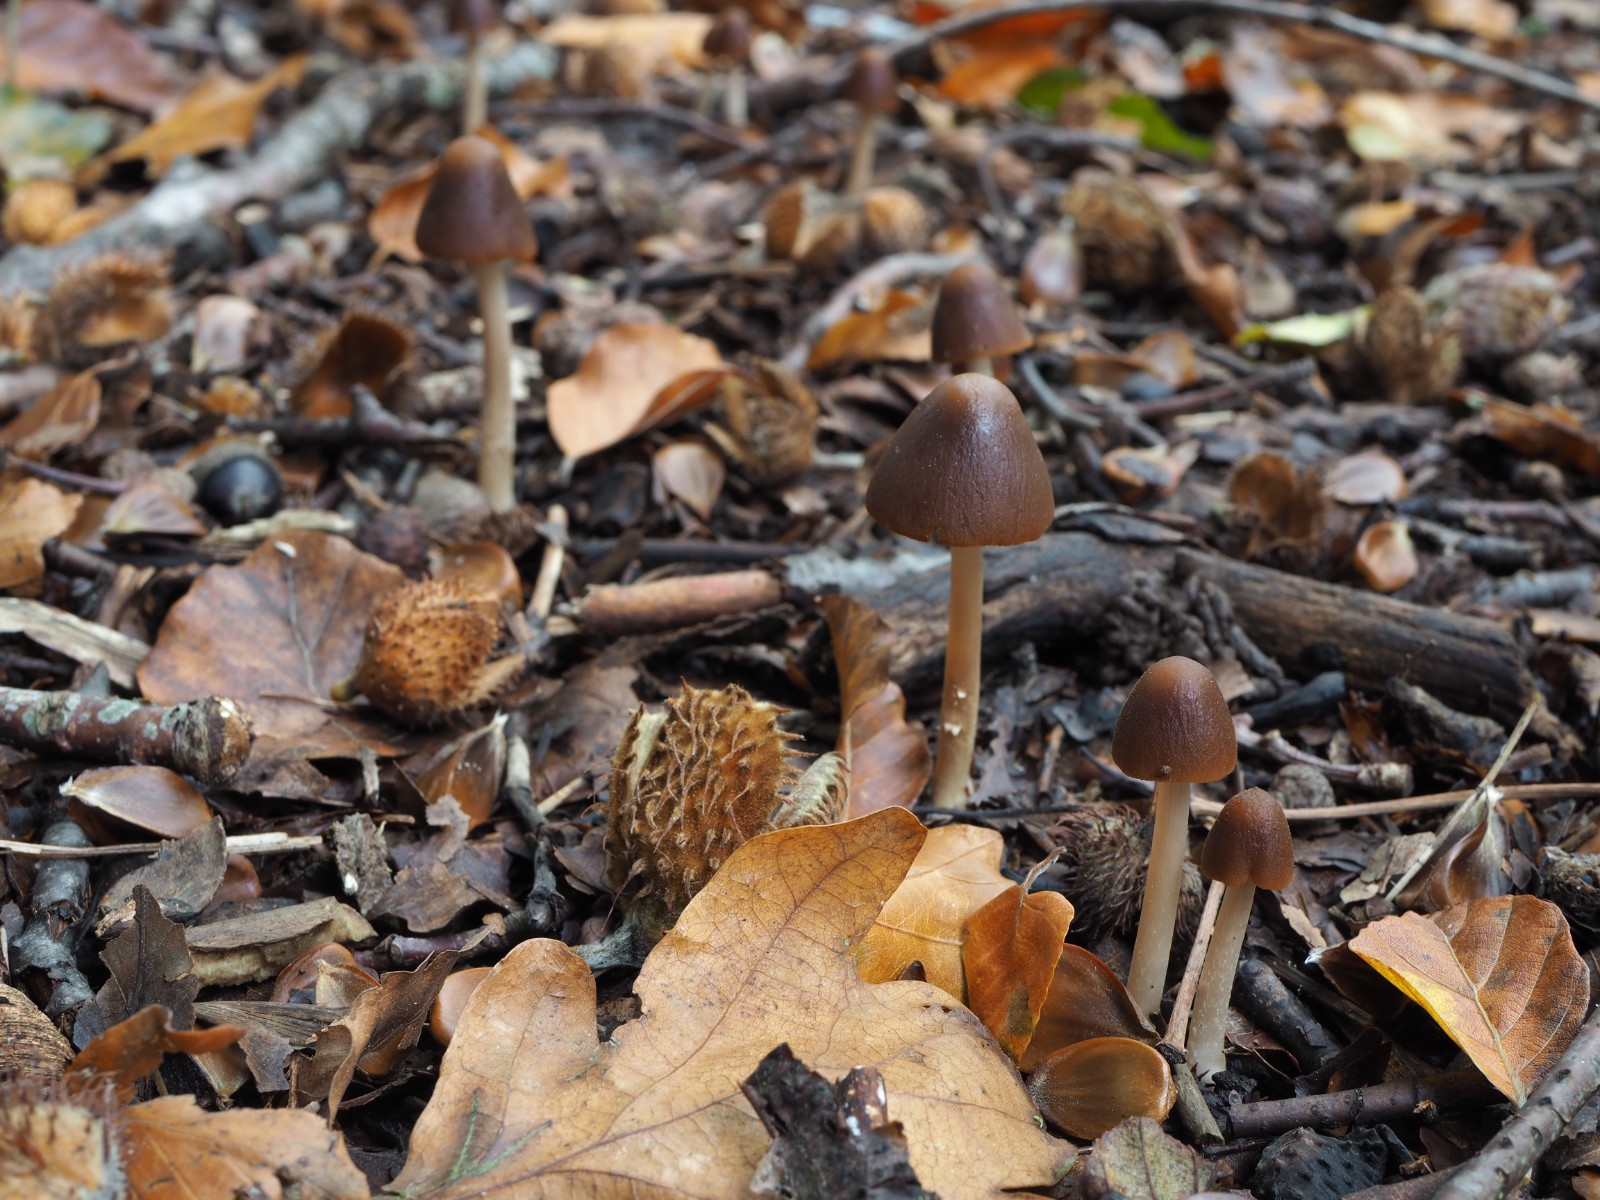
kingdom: Fungi
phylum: Basidiomycota
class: Agaricomycetes
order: Agaricales
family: Psathyrellaceae
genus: Parasola
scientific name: Parasola conopilea
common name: kegle-hjulhat
